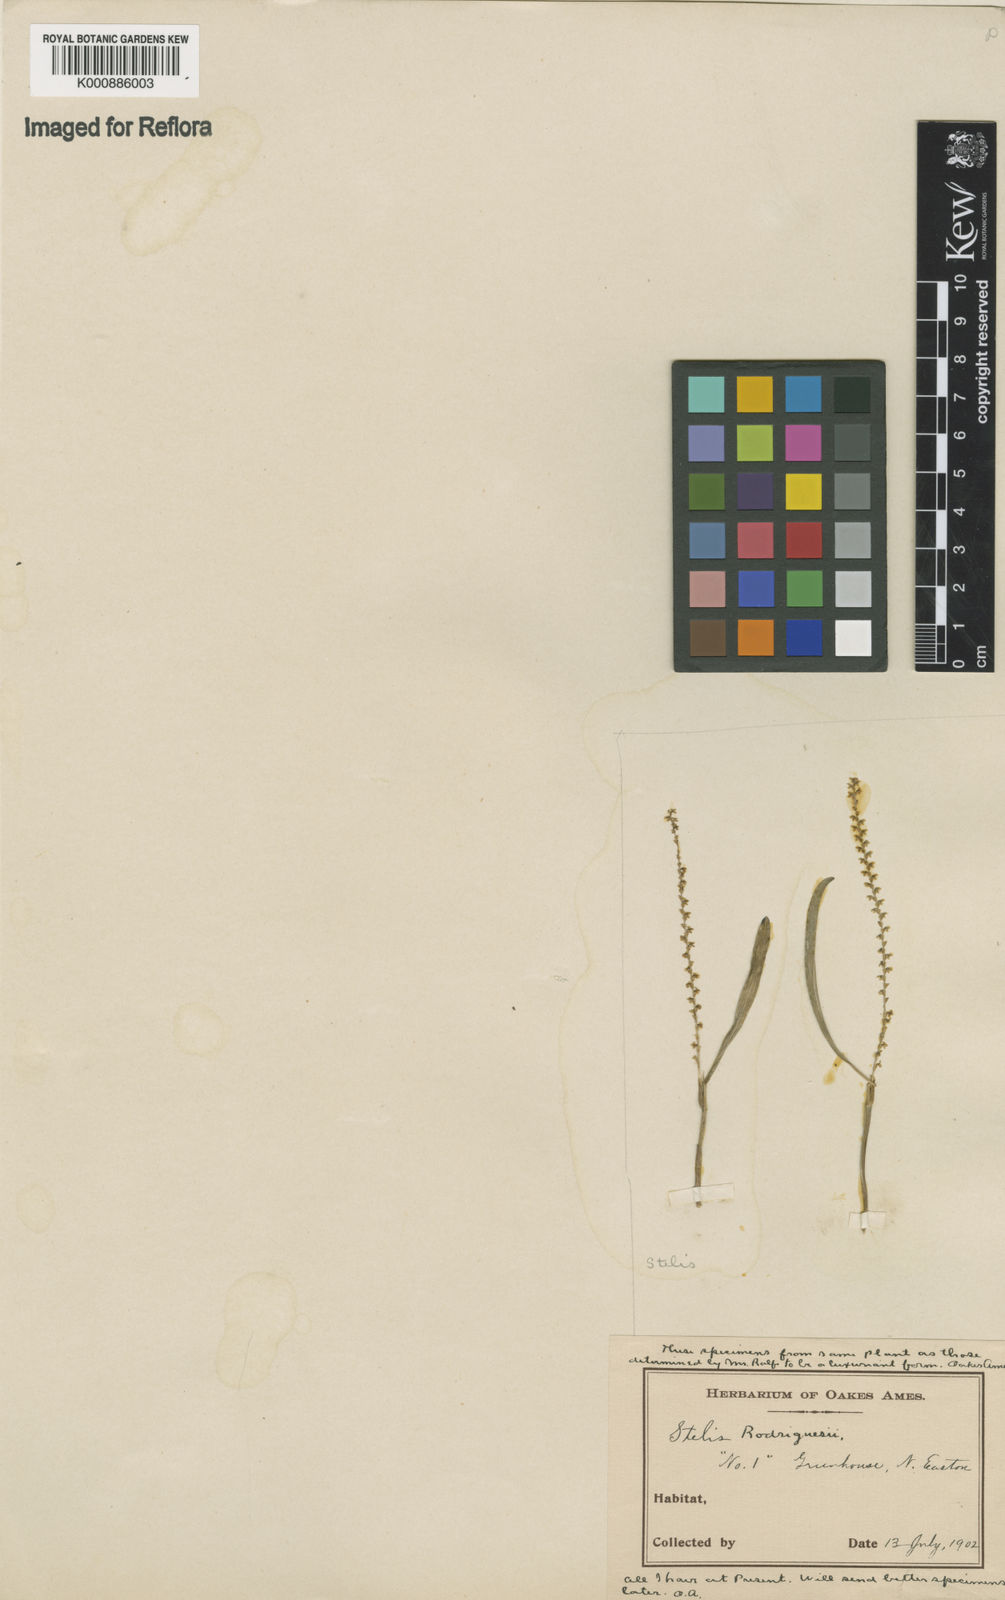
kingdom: Plantae
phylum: Tracheophyta
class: Liliopsida
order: Asparagales
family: Orchidaceae
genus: Stelis
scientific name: Stelis aprica
